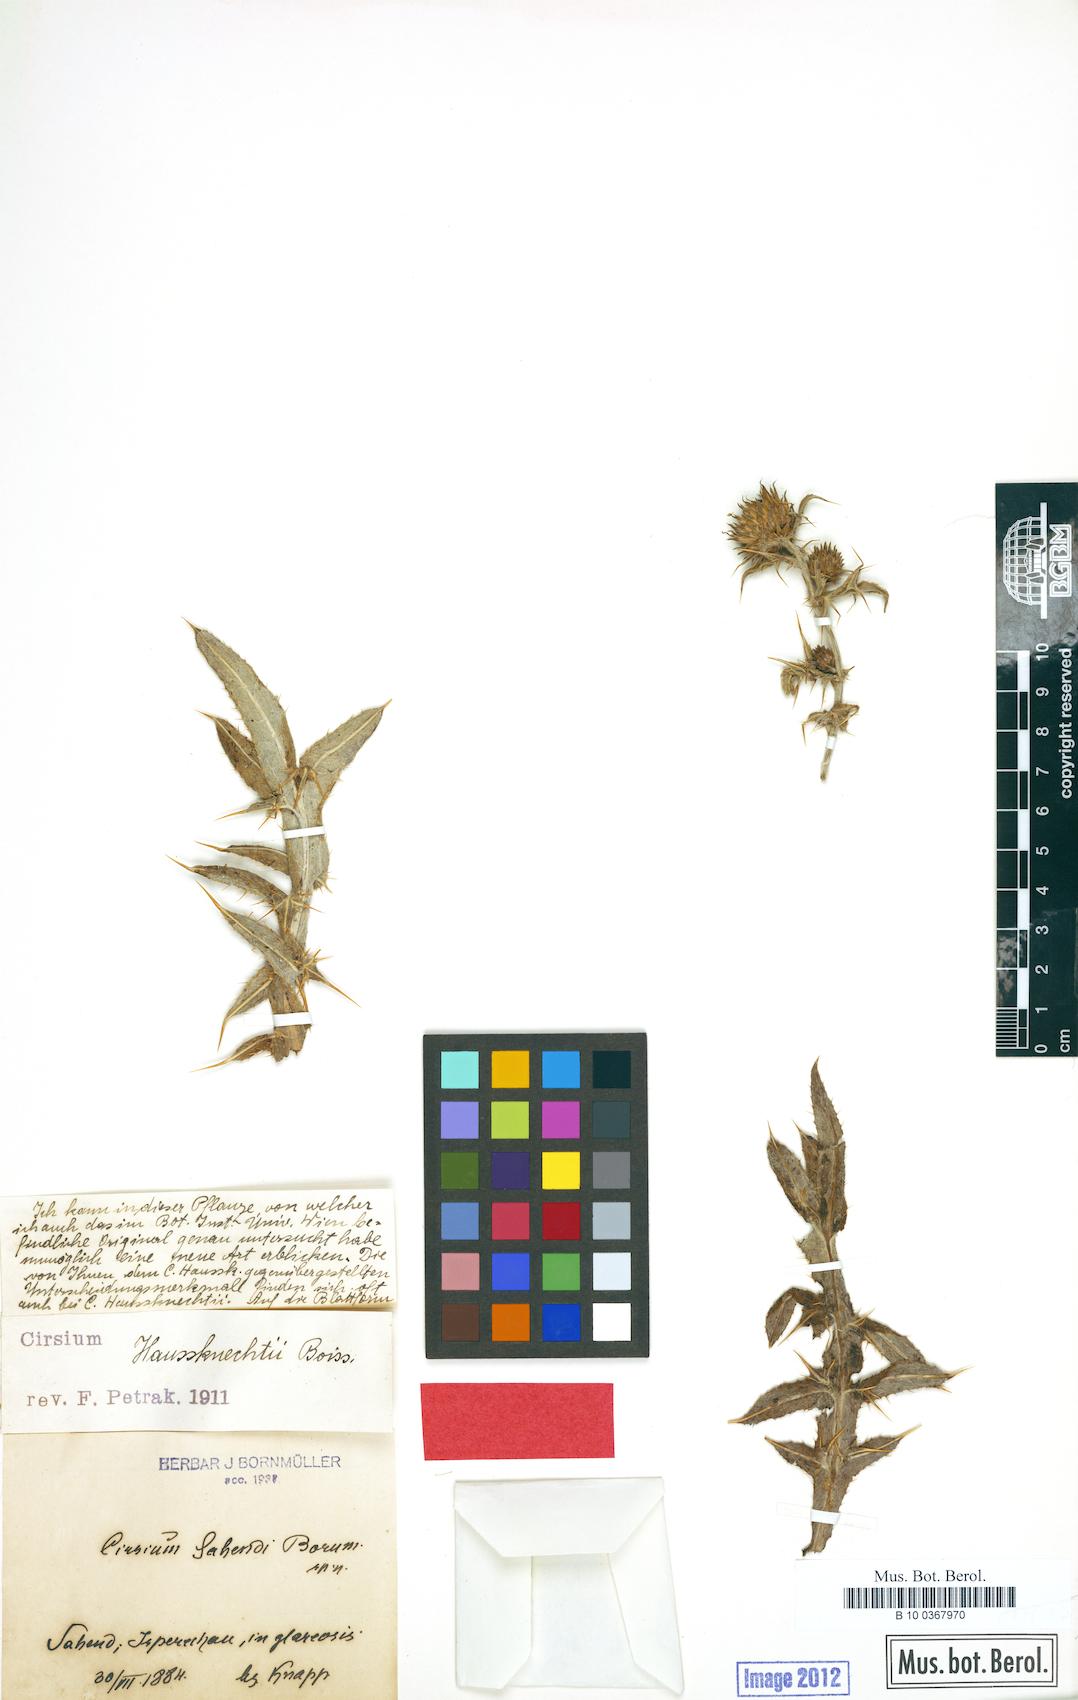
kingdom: Plantae
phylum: Tracheophyta
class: Magnoliopsida
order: Asterales
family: Asteraceae
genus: Lophiolepis
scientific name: Lophiolepis haussknechtii
